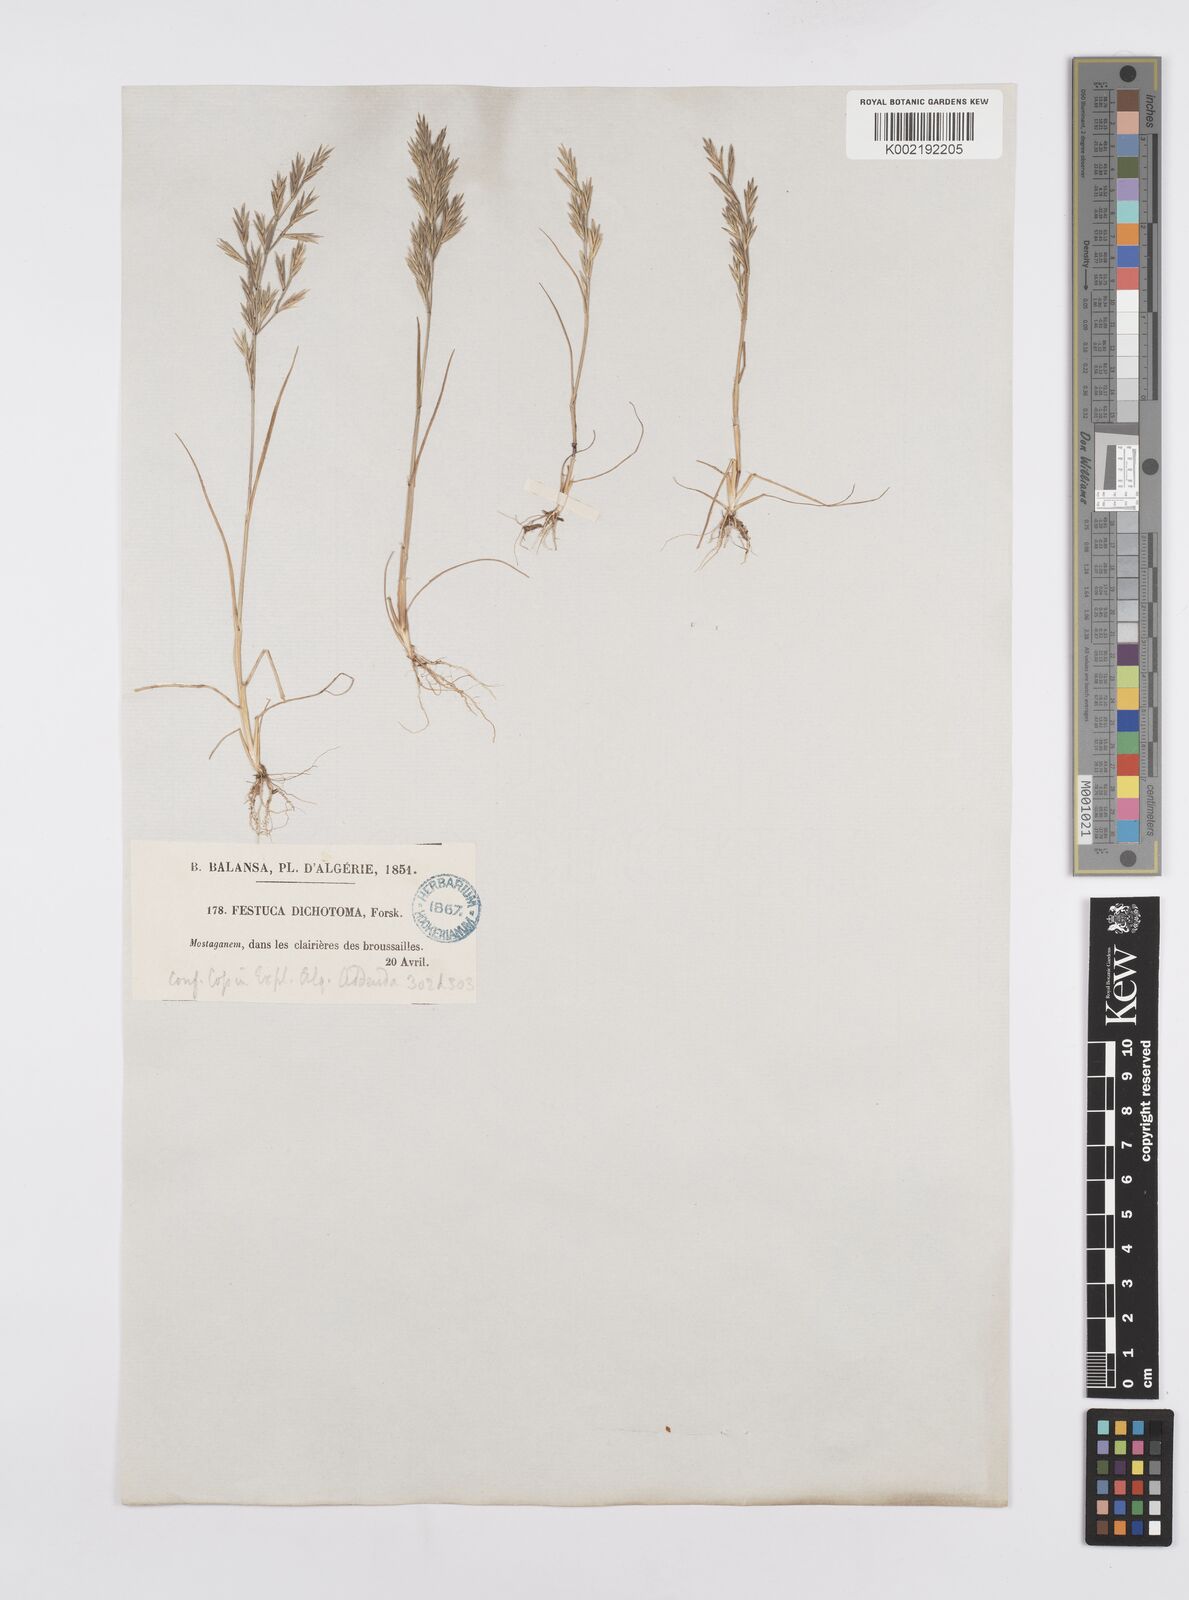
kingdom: Plantae
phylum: Tracheophyta
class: Liliopsida
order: Poales
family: Poaceae
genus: Cutandia
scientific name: Cutandia divaricata
